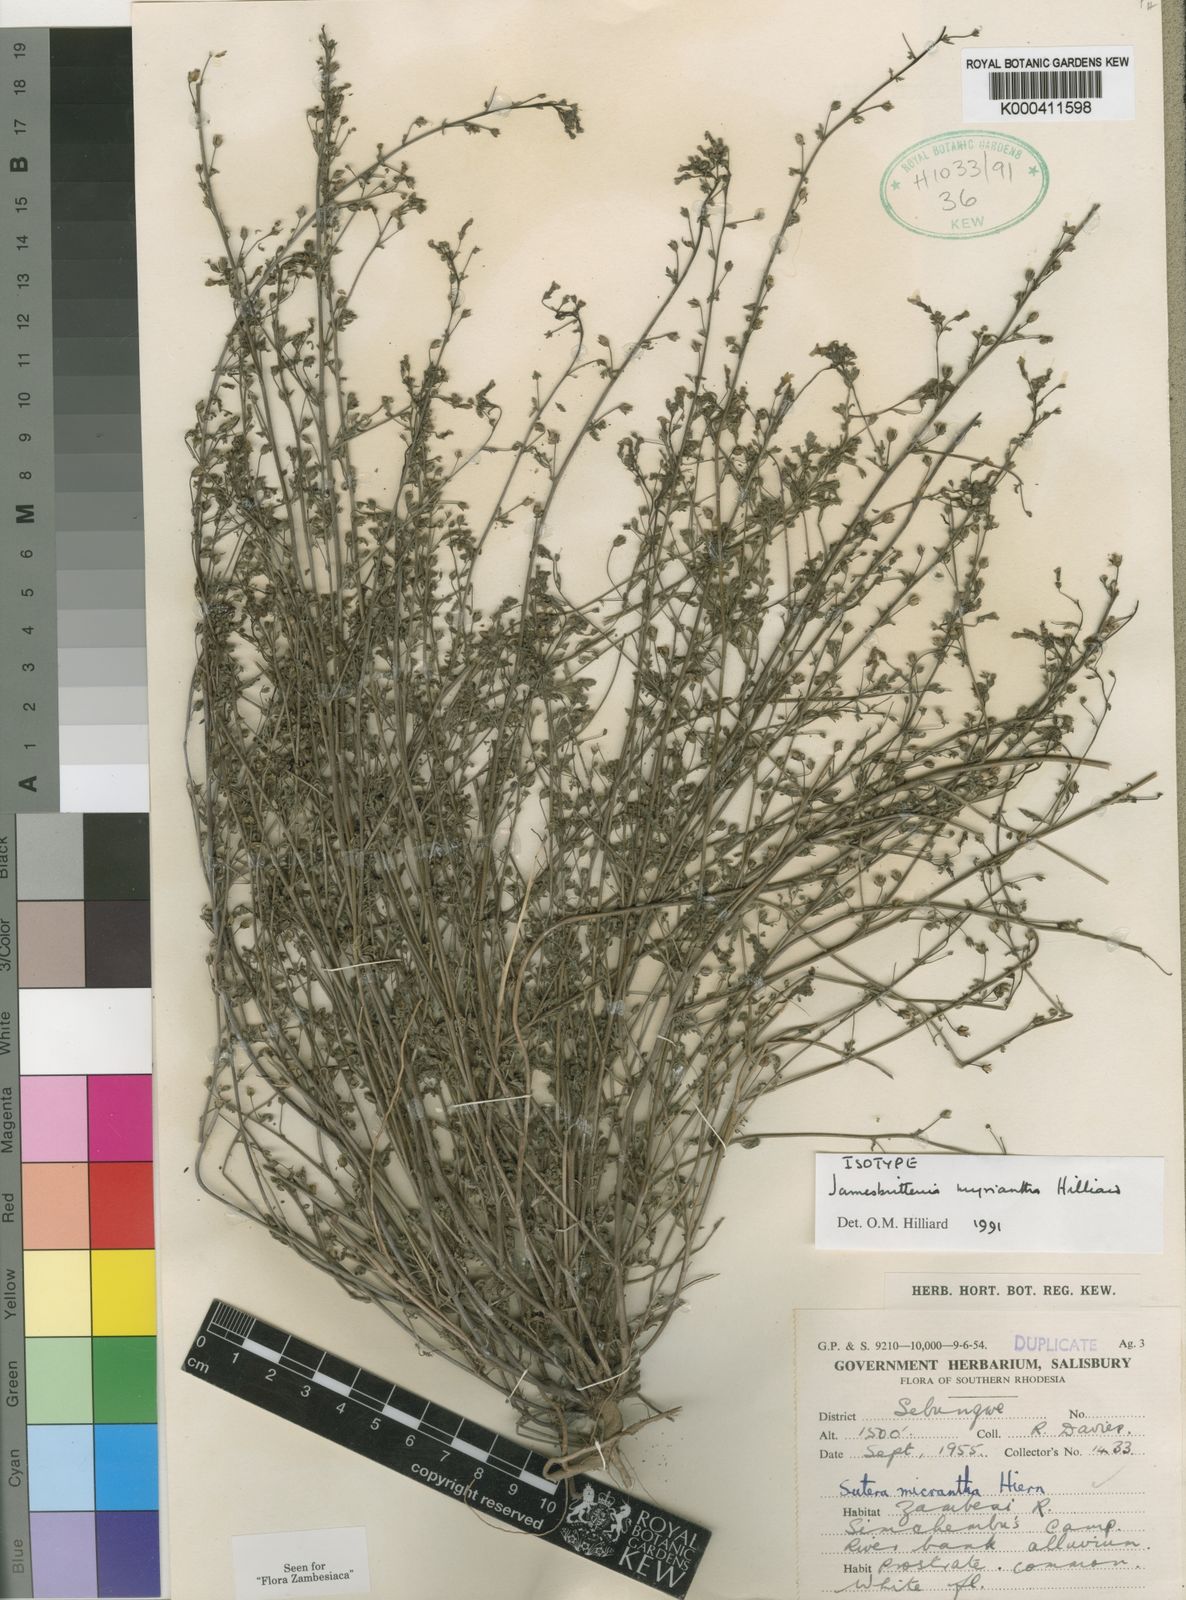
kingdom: Plantae
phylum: Tracheophyta
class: Magnoliopsida
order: Lamiales
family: Scrophulariaceae
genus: Jamesbrittenia
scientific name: Jamesbrittenia myriantha
